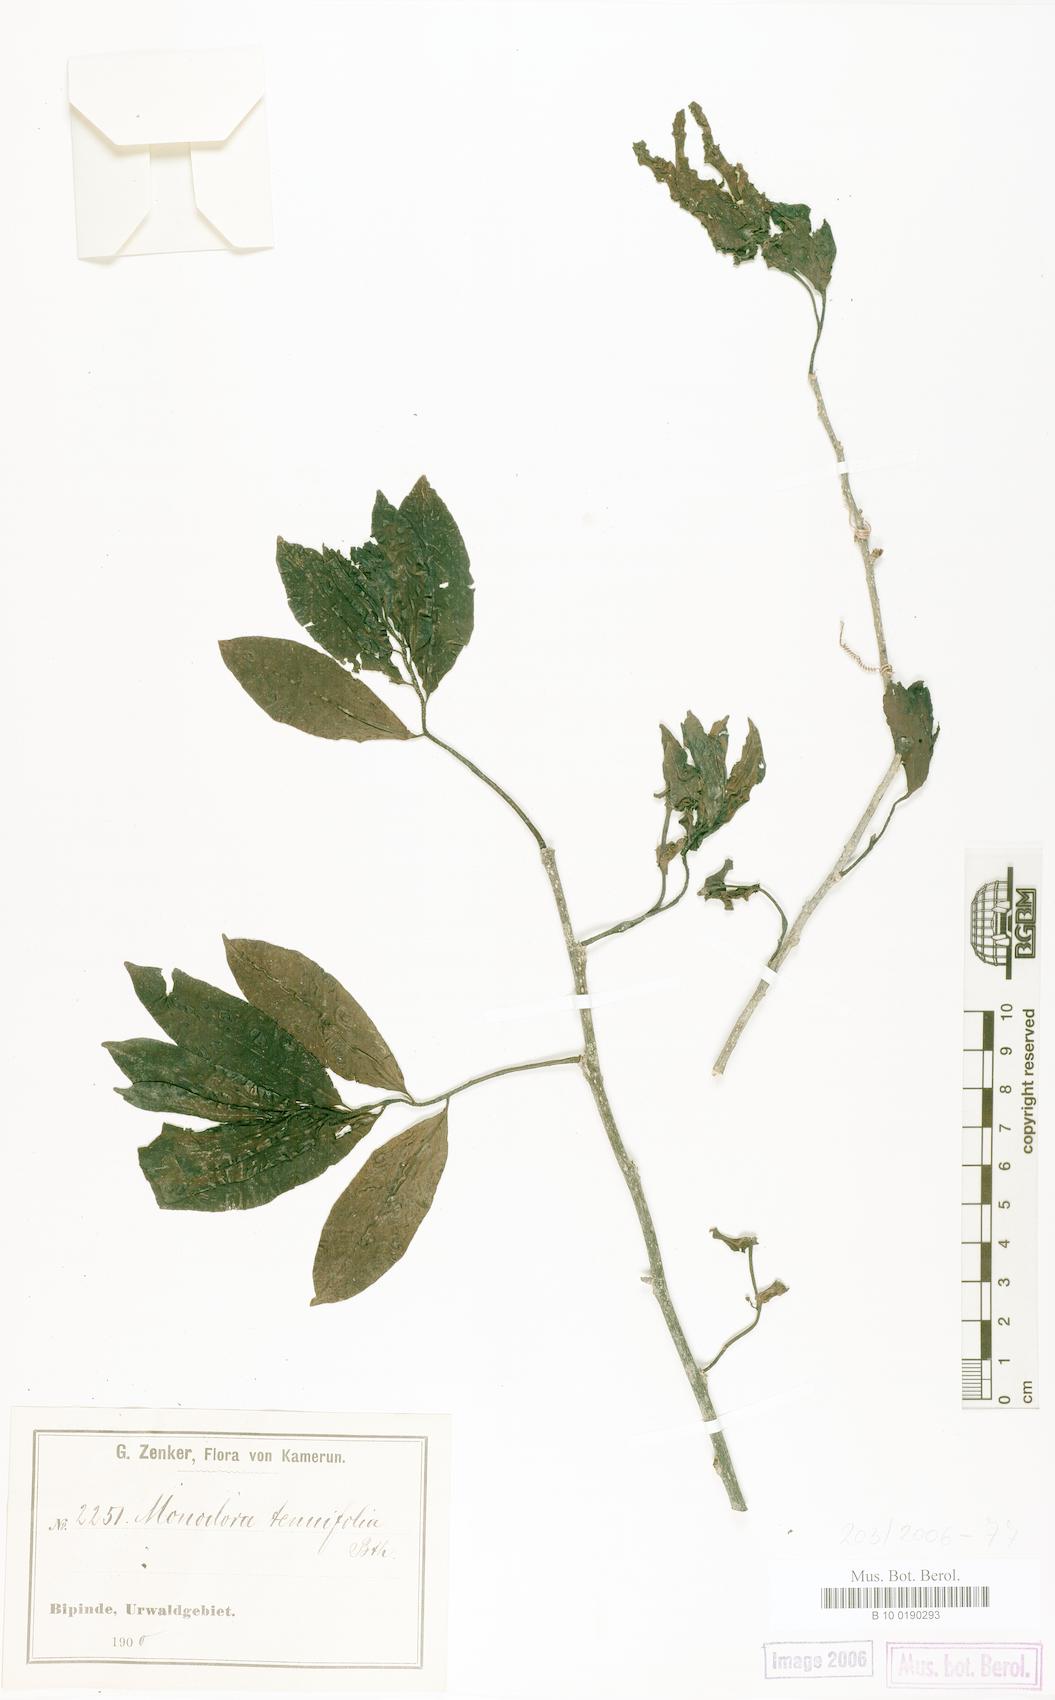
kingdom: Plantae
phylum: Tracheophyta
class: Magnoliopsida
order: Magnoliales
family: Annonaceae
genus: Monodora
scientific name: Monodora tenuifolia
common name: Orchidtree
